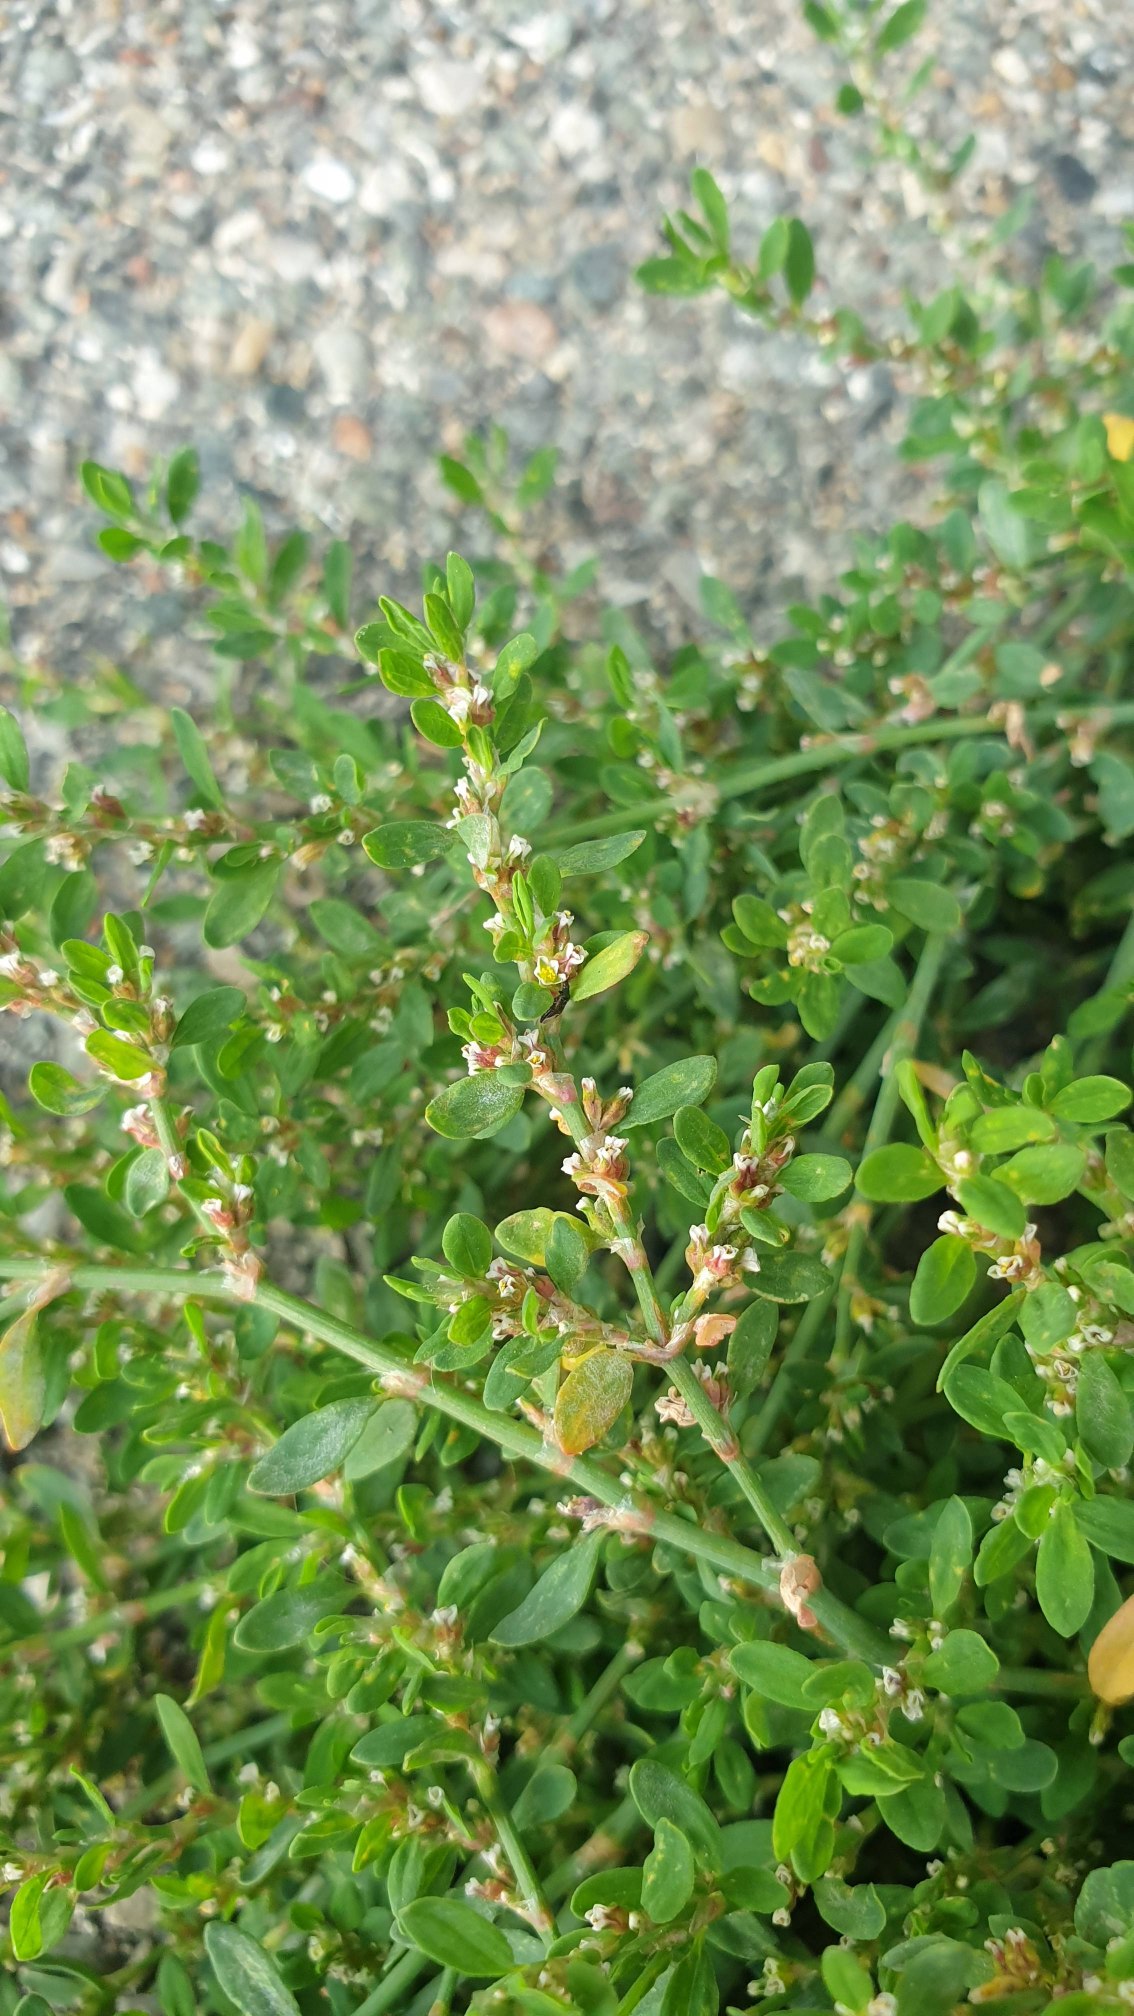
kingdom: Plantae
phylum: Tracheophyta
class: Magnoliopsida
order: Caryophyllales
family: Polygonaceae
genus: Polygonum
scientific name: Polygonum arenastrum
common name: Liggende vej-pileurt
